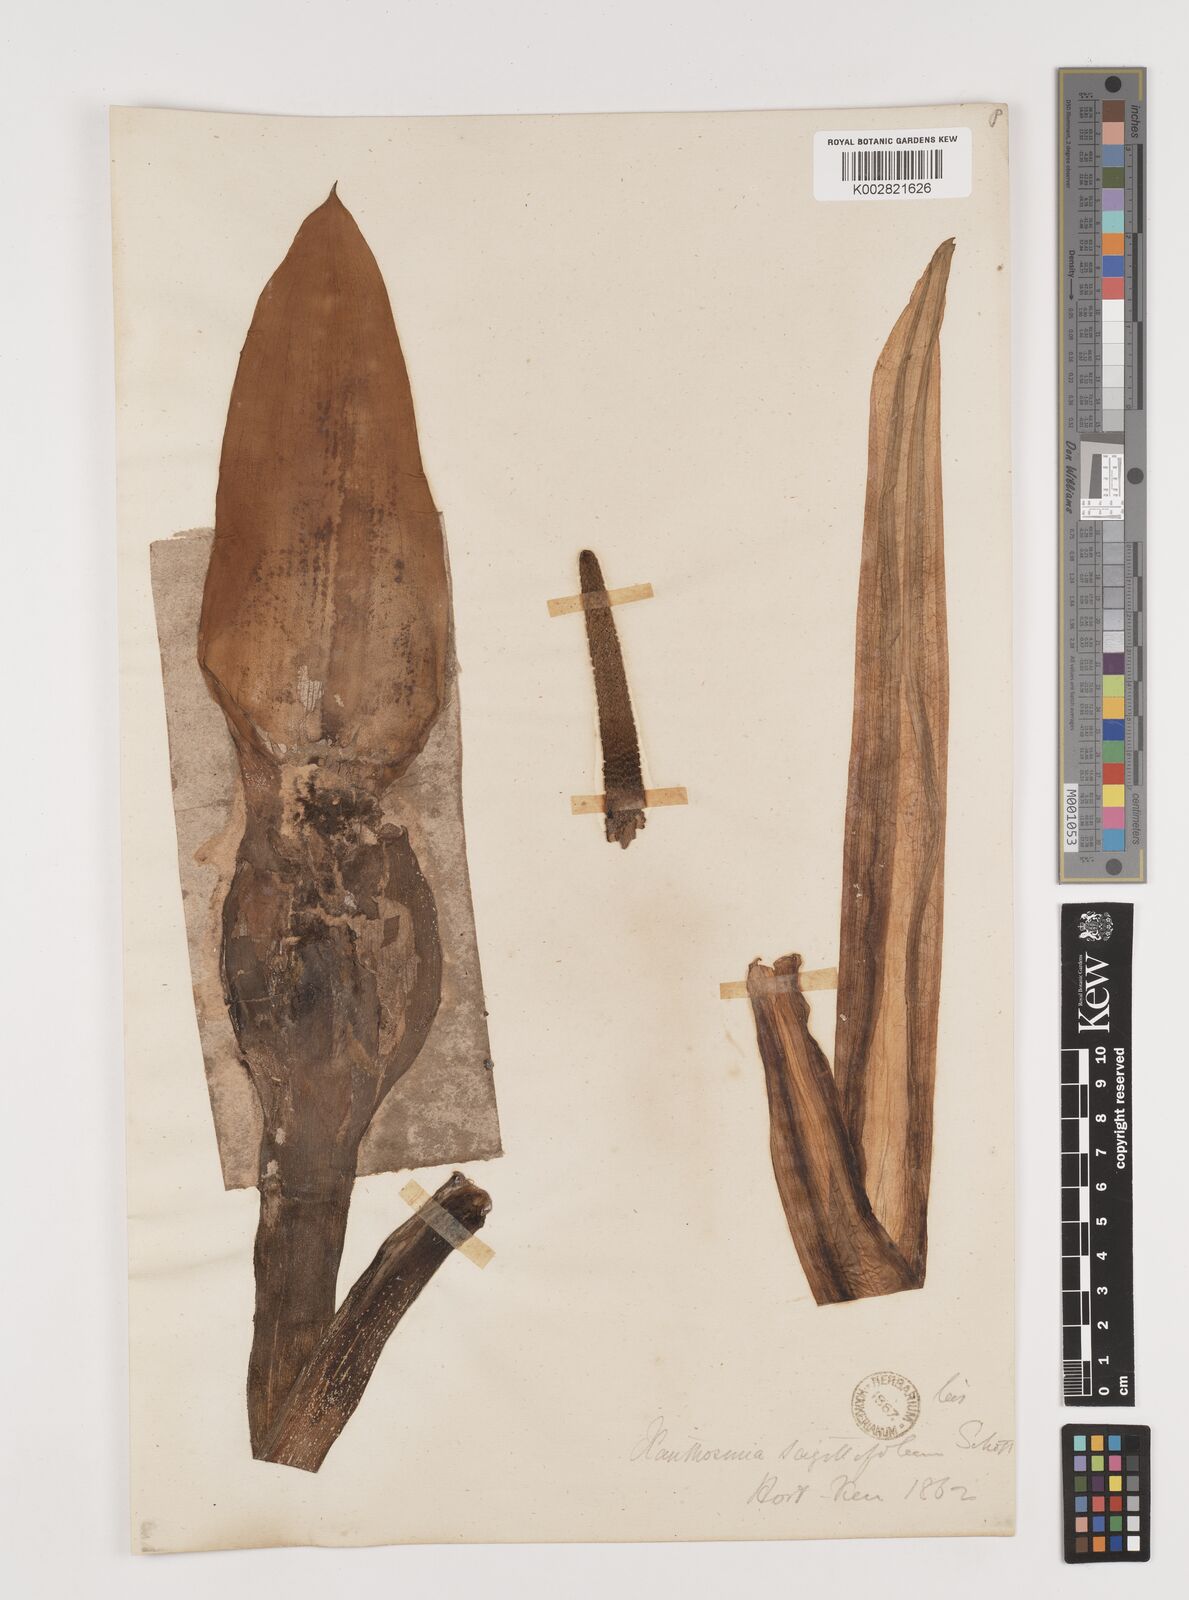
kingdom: Plantae
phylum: Tracheophyta
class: Liliopsida
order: Alismatales
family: Araceae
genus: Xanthosoma
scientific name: Xanthosoma sagittifolium
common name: Arrowleaf elephant's ear
